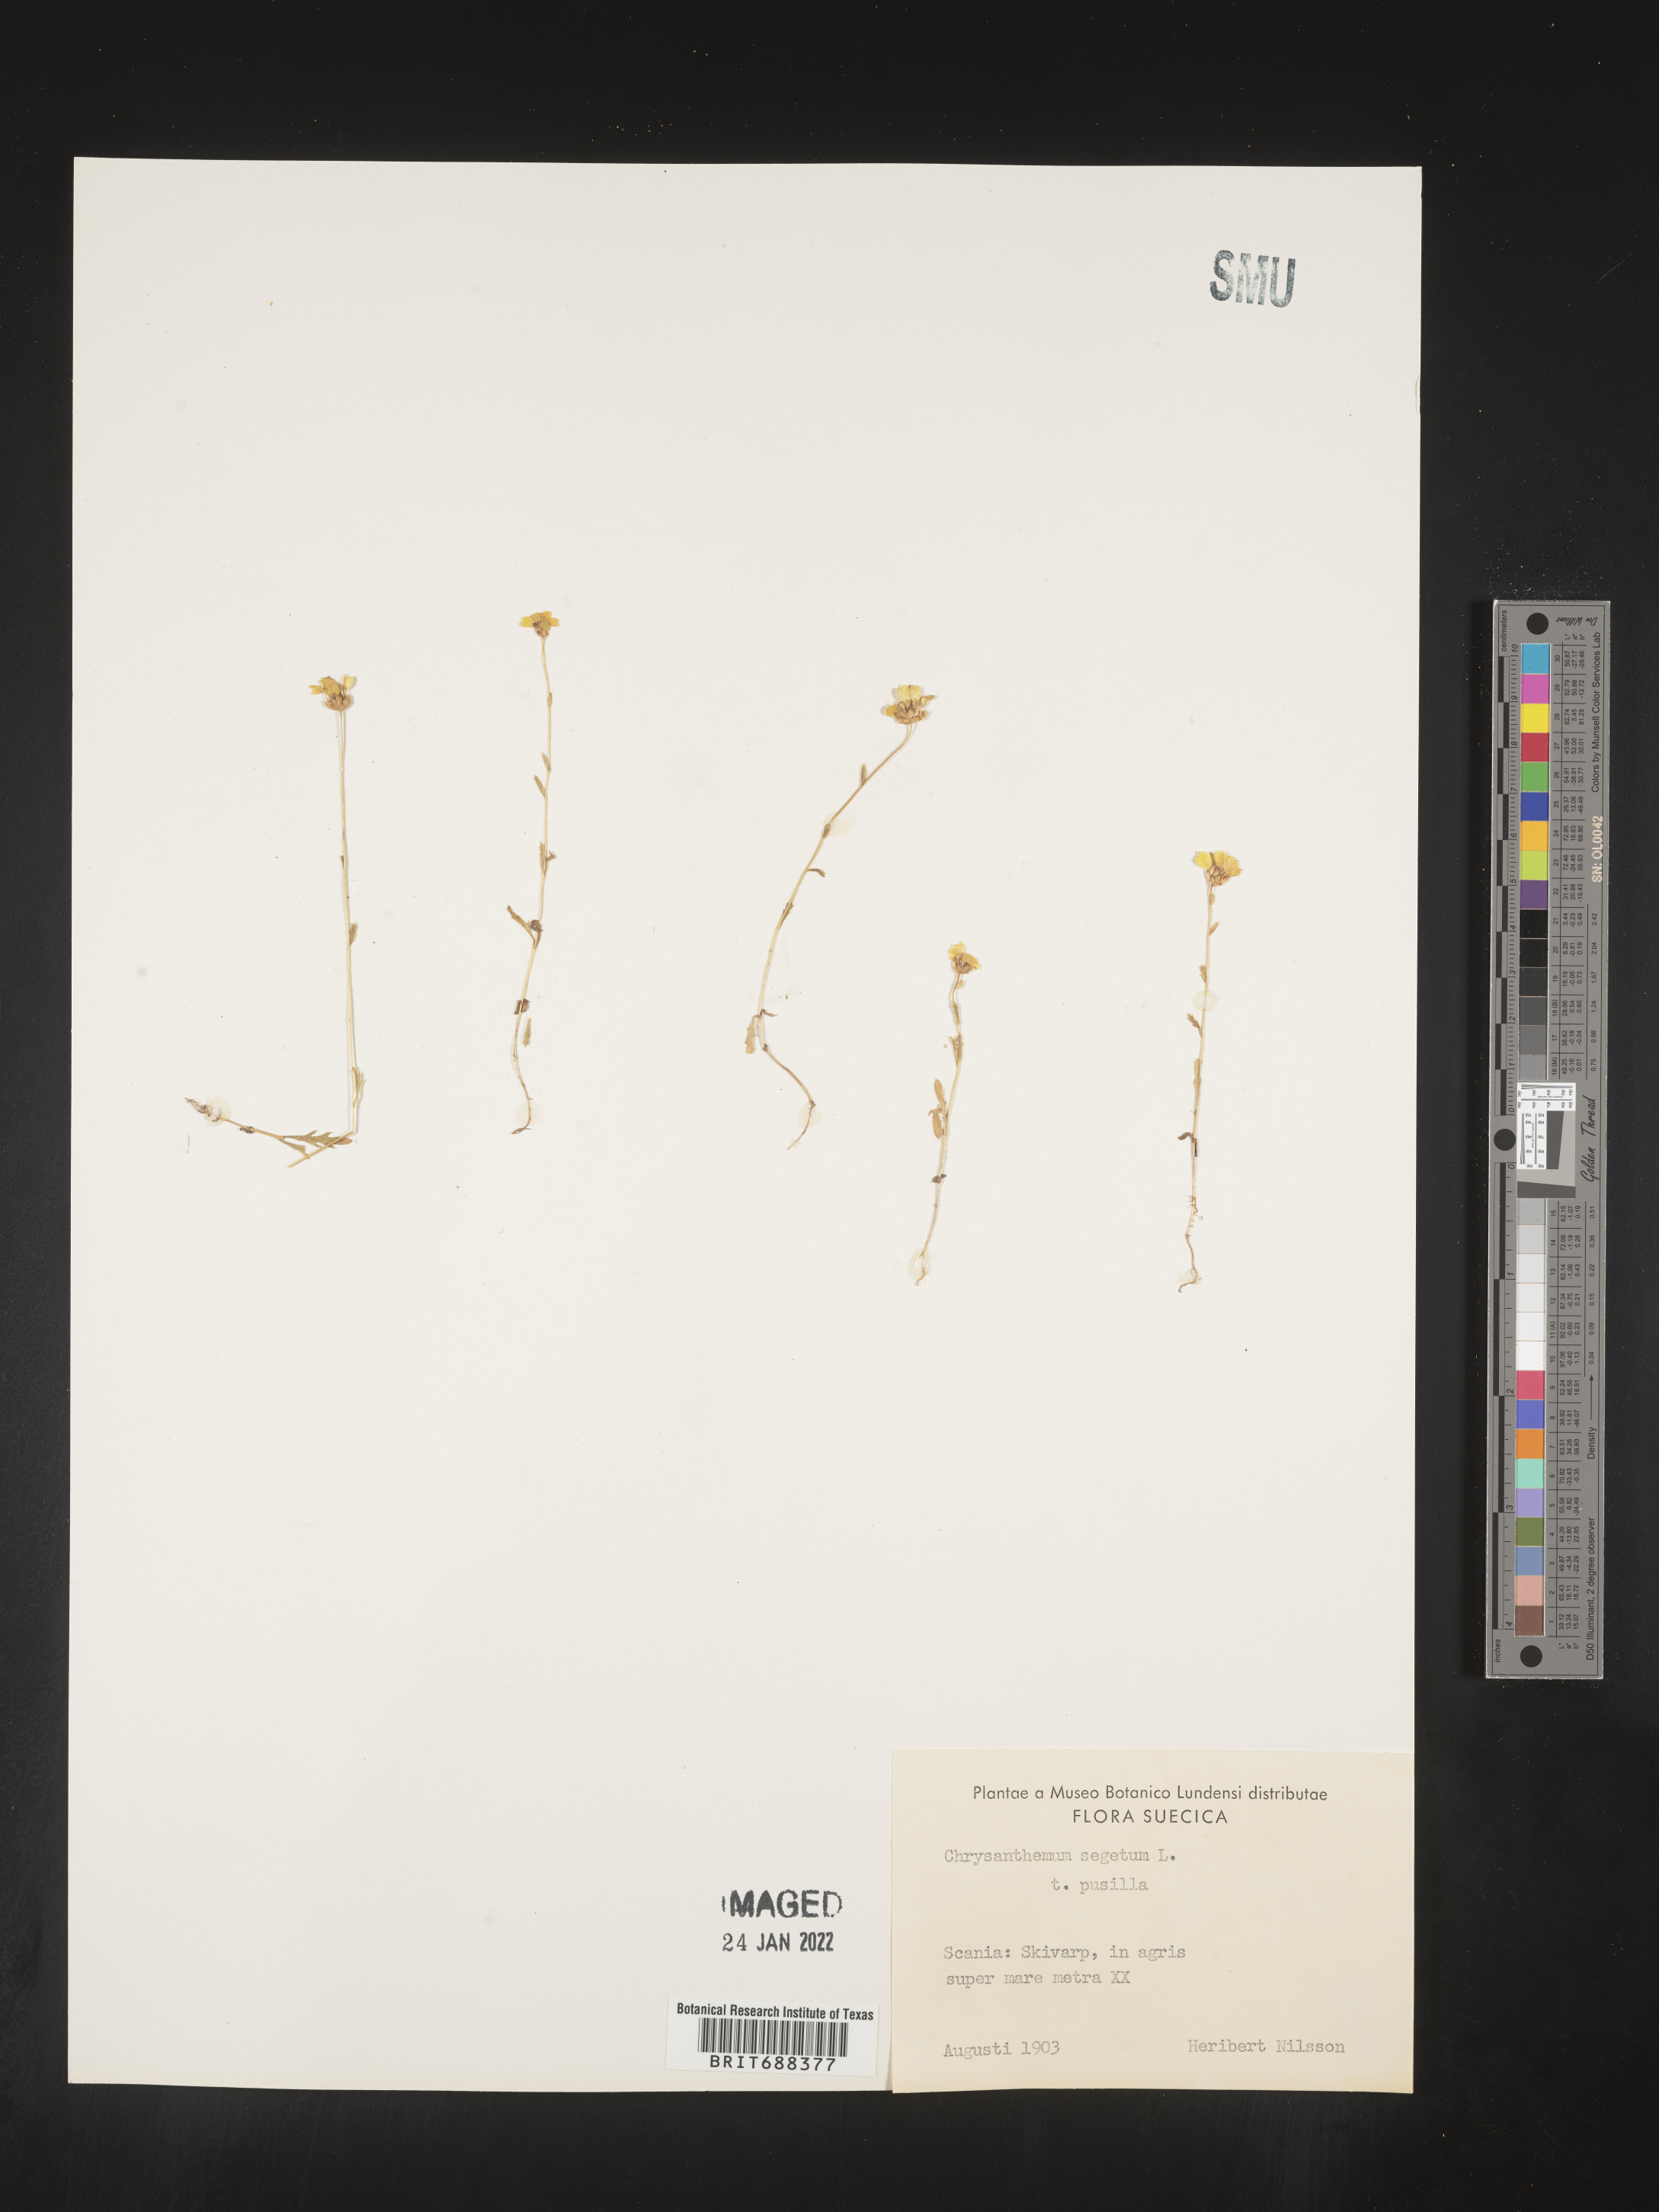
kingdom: Plantae
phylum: Tracheophyta
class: Magnoliopsida
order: Asterales
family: Asteraceae
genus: Chrysanthemum
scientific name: Chrysanthemum
